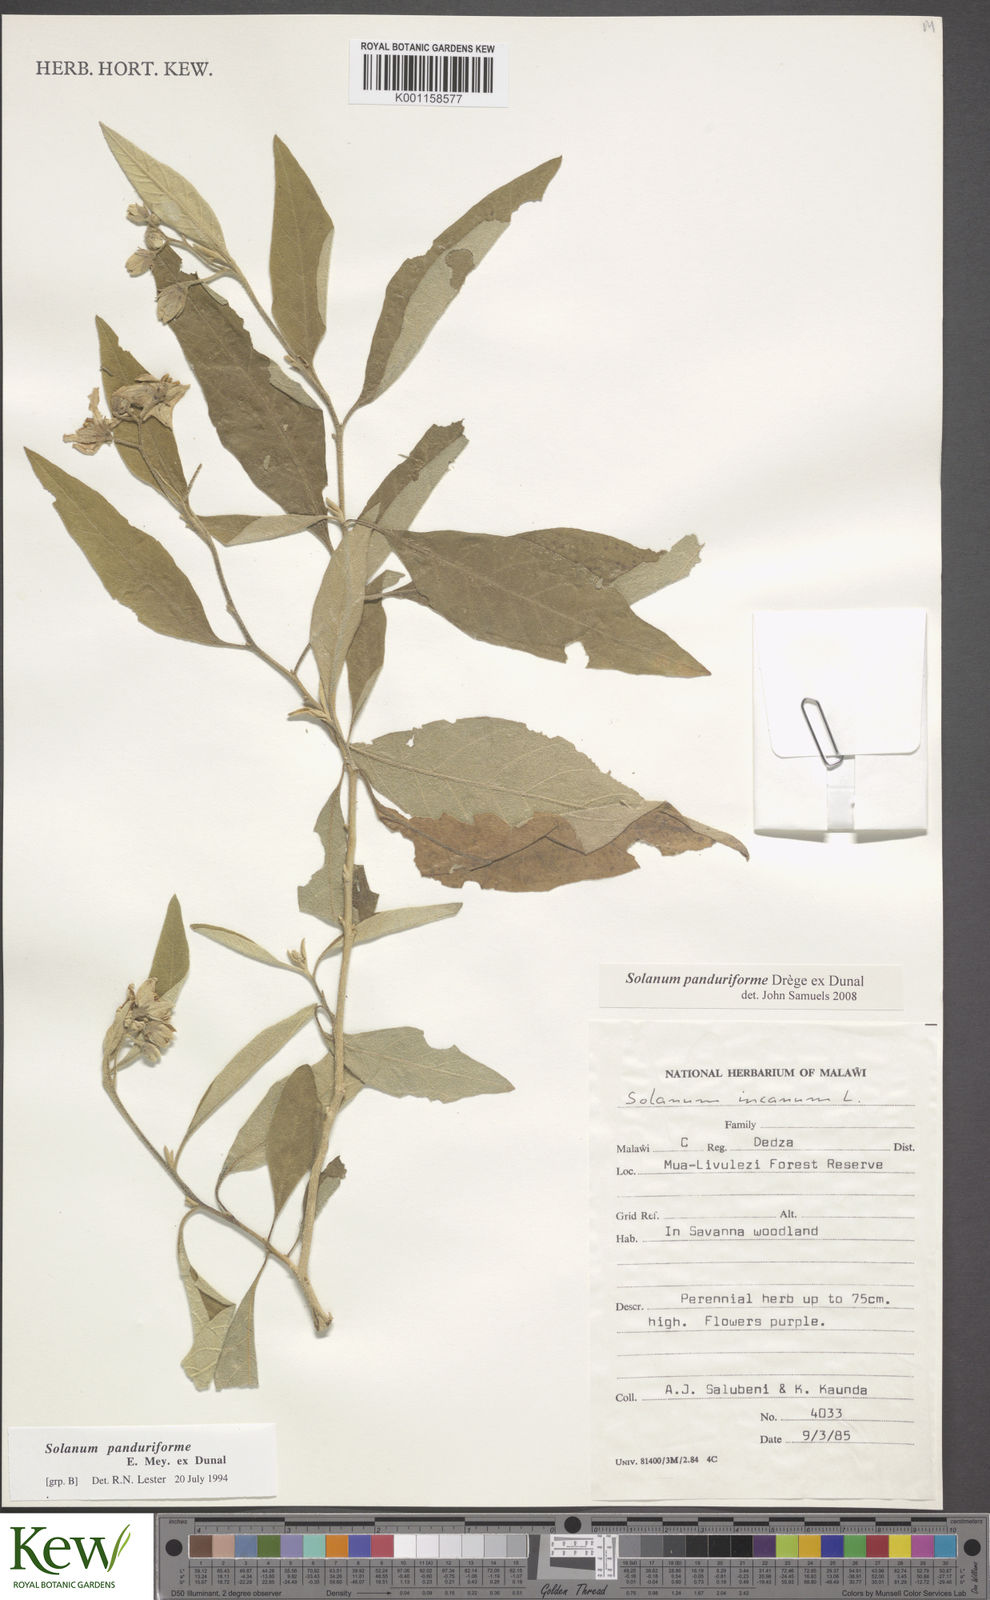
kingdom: Plantae
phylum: Tracheophyta
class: Magnoliopsida
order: Solanales
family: Solanaceae
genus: Solanum
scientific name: Solanum campylacanthum
